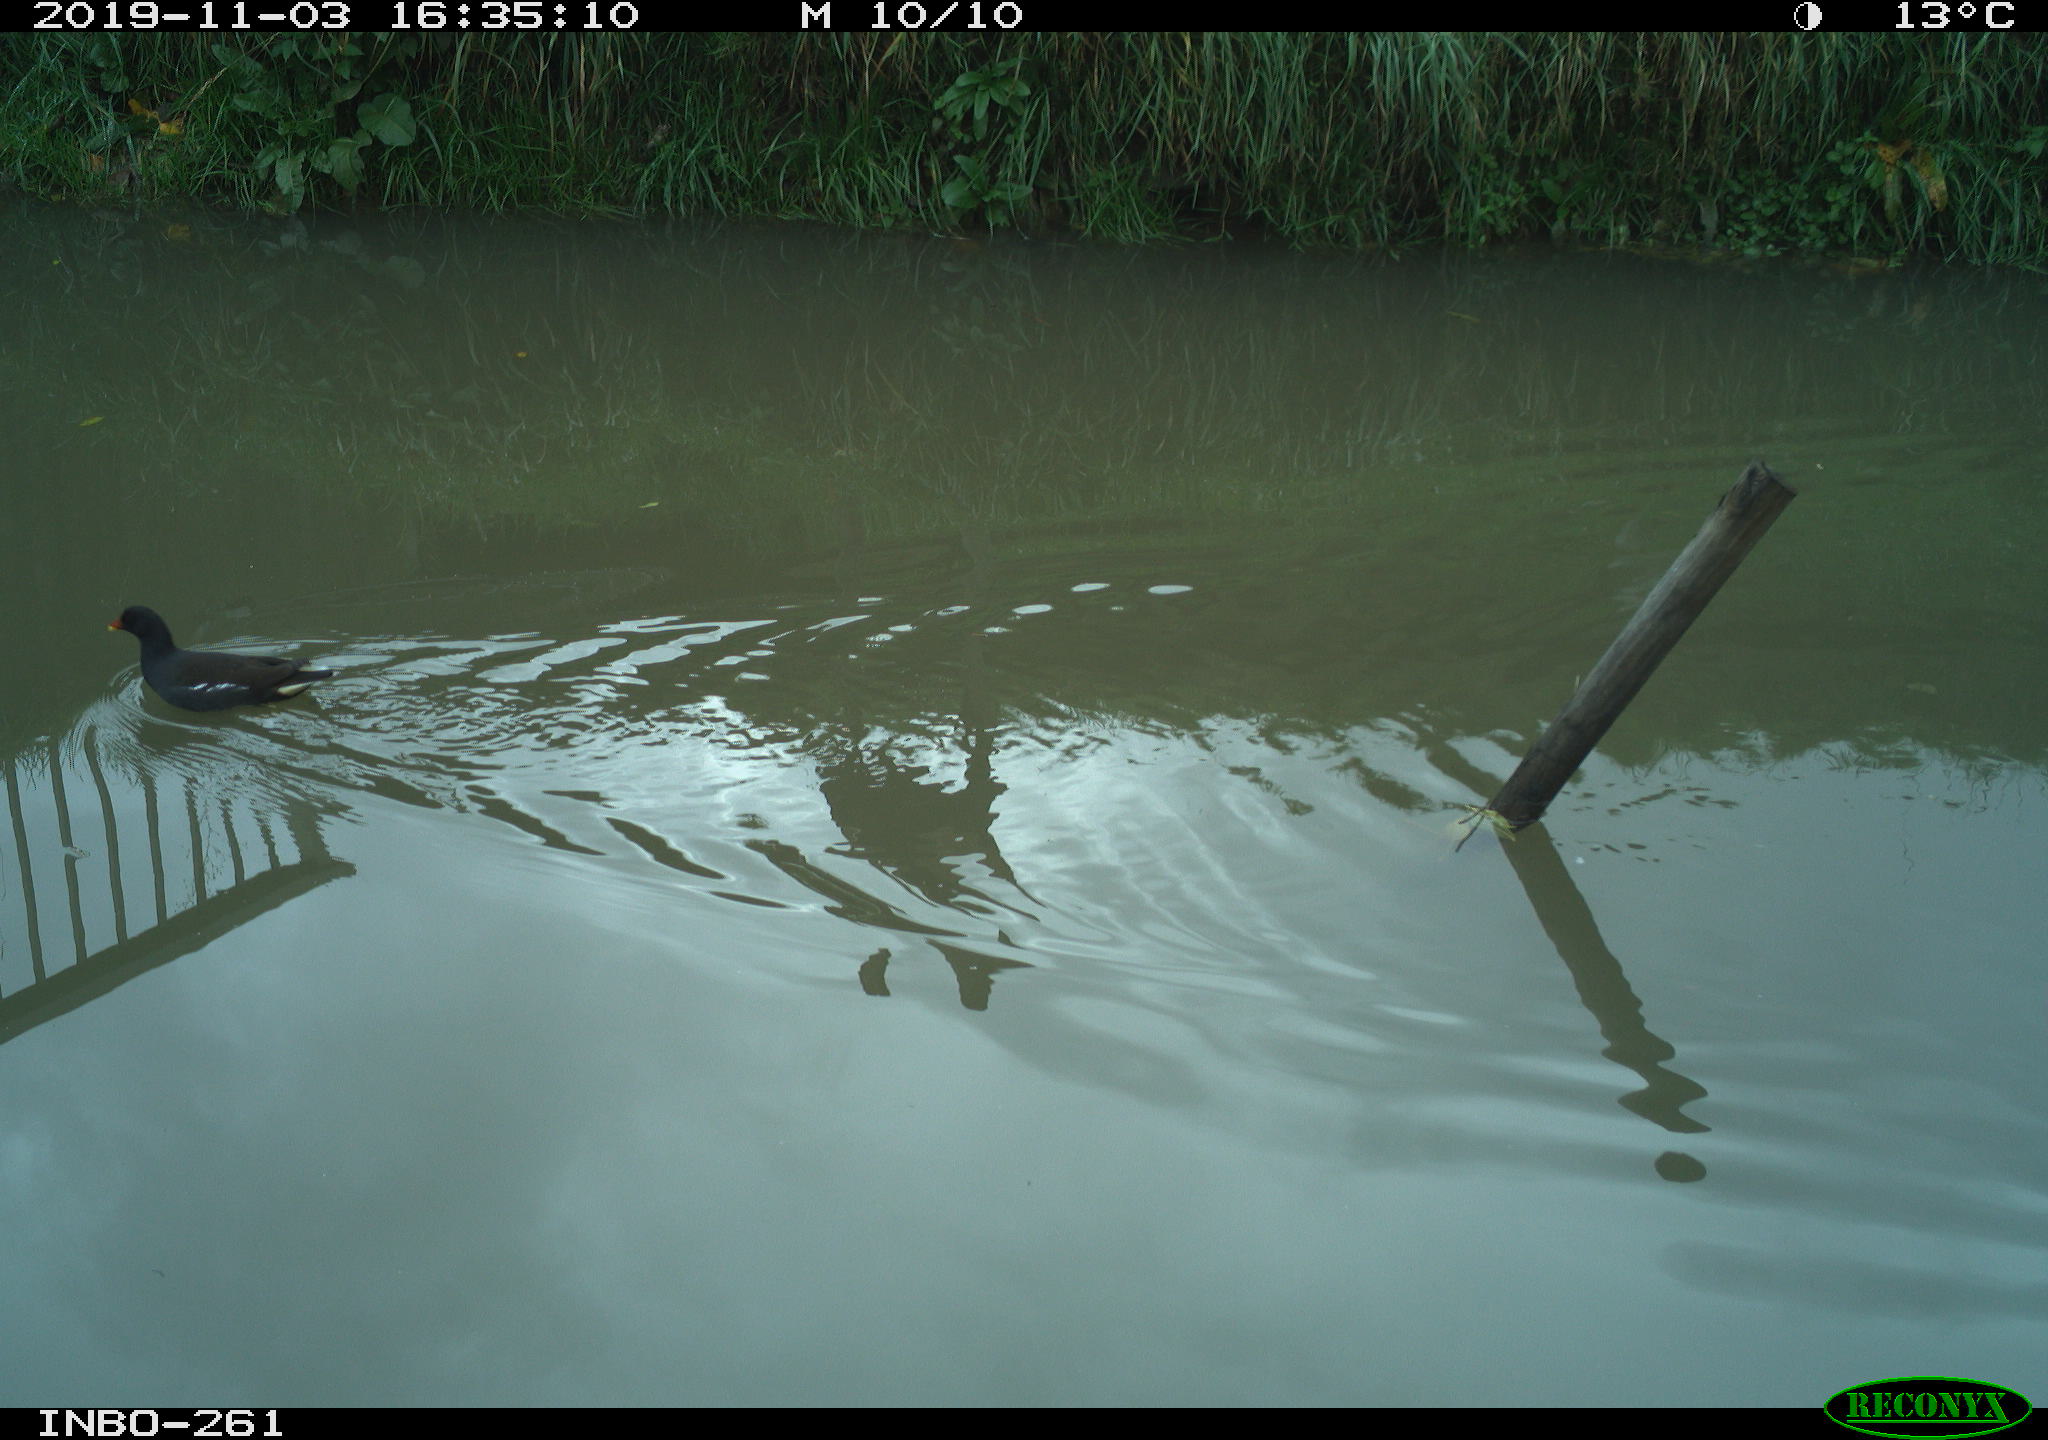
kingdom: Animalia
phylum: Chordata
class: Aves
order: Gruiformes
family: Rallidae
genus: Gallinula
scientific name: Gallinula chloropus
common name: Common moorhen
